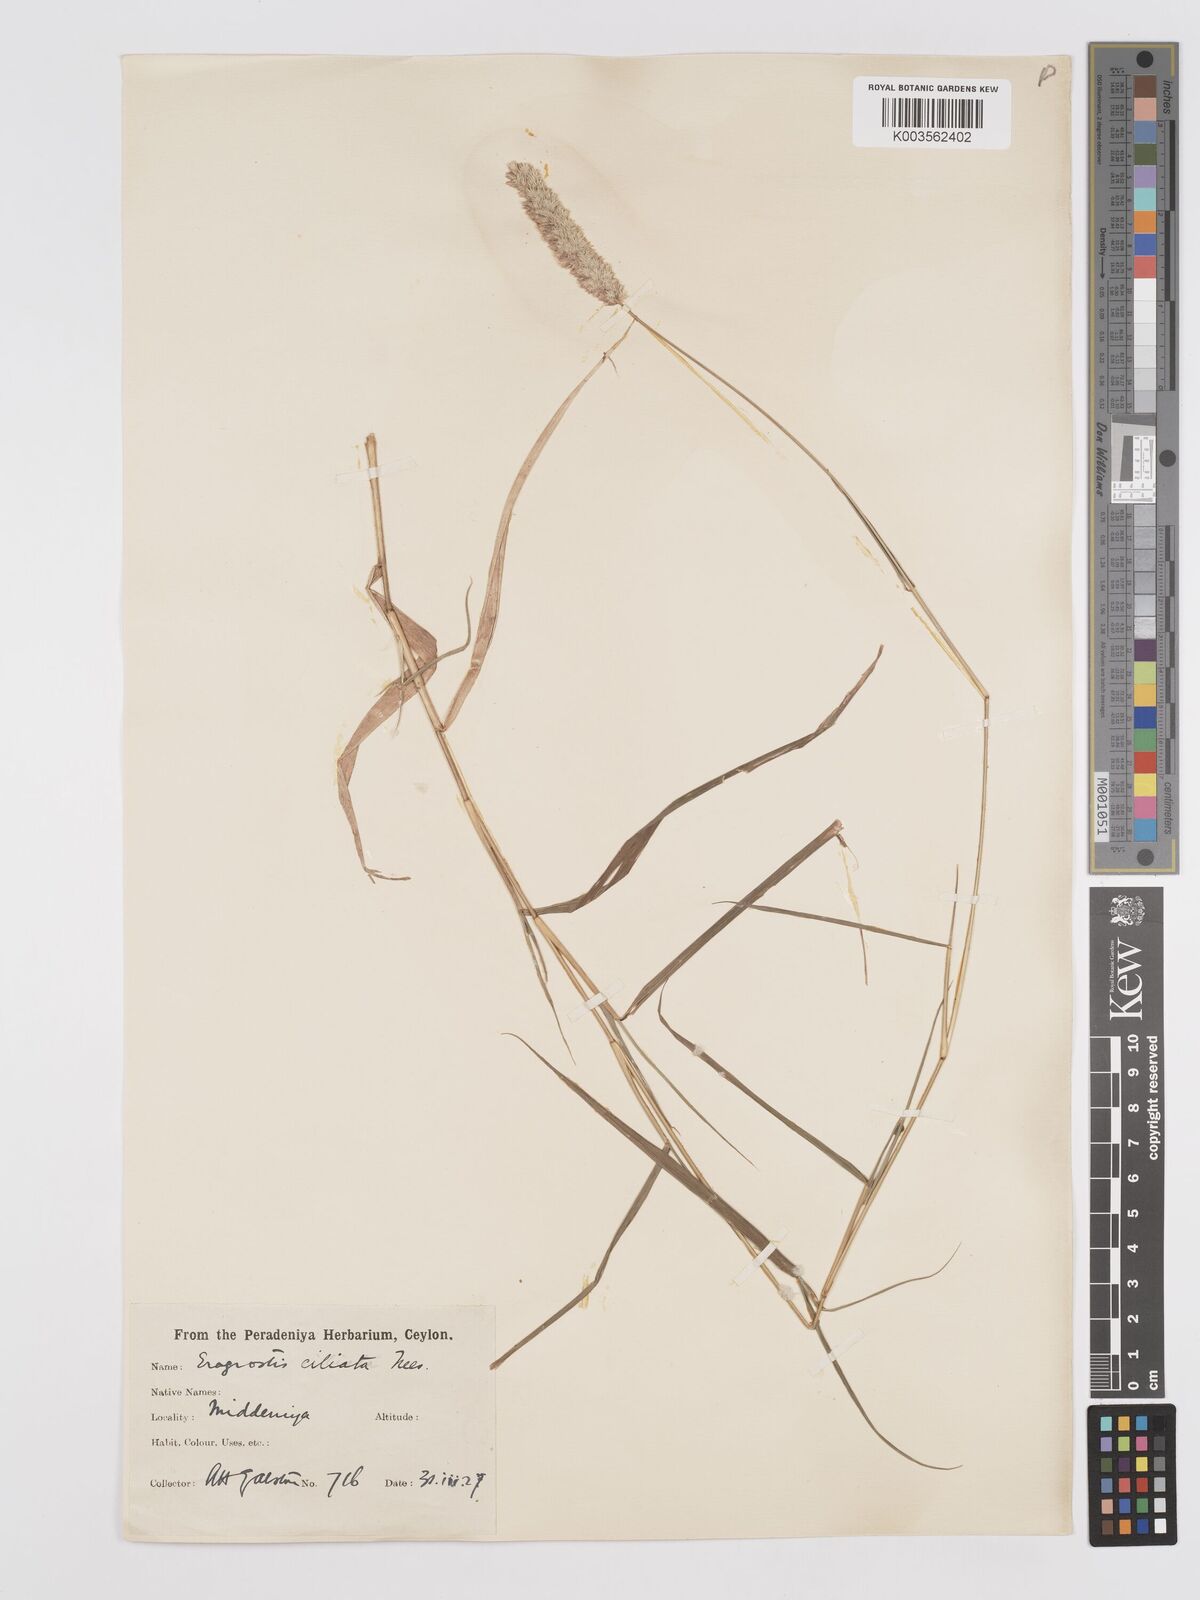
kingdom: Plantae
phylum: Tracheophyta
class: Liliopsida
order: Poales
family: Poaceae
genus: Eragrostis
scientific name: Eragrostis ciliata
